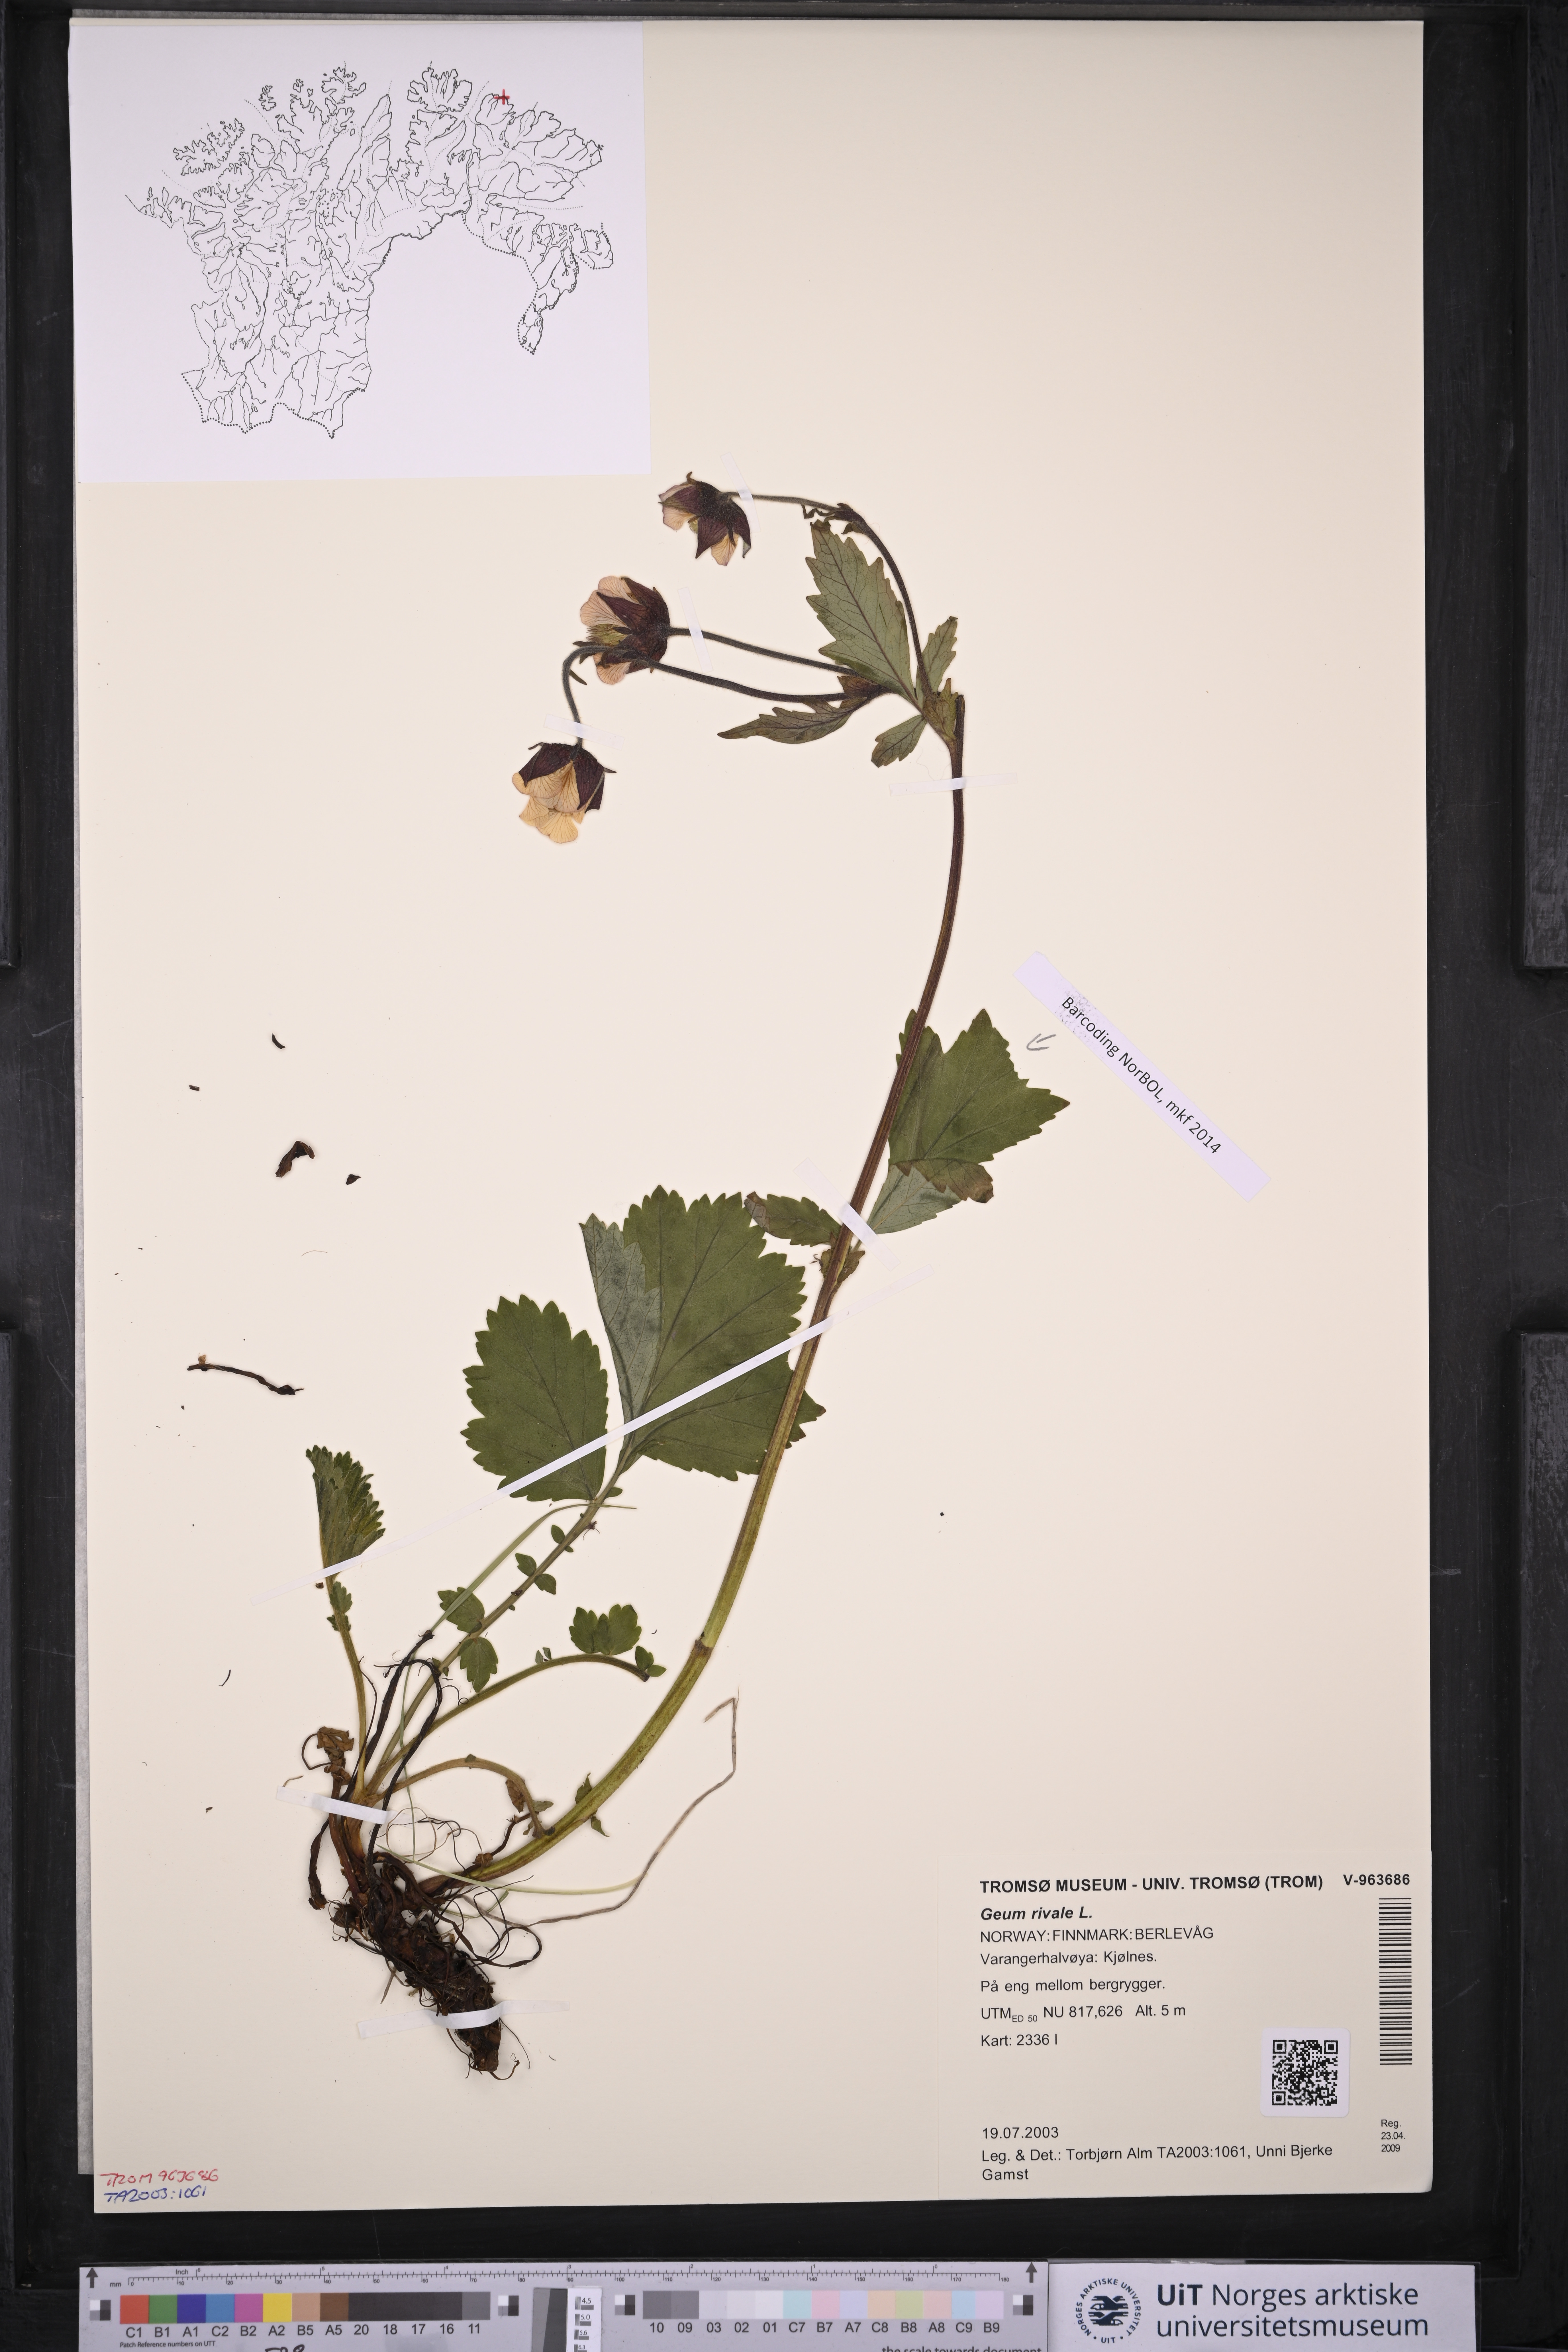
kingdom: Plantae
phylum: Tracheophyta
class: Magnoliopsida
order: Rosales
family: Rosaceae
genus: Geum
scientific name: Geum rivale
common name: Water avens
